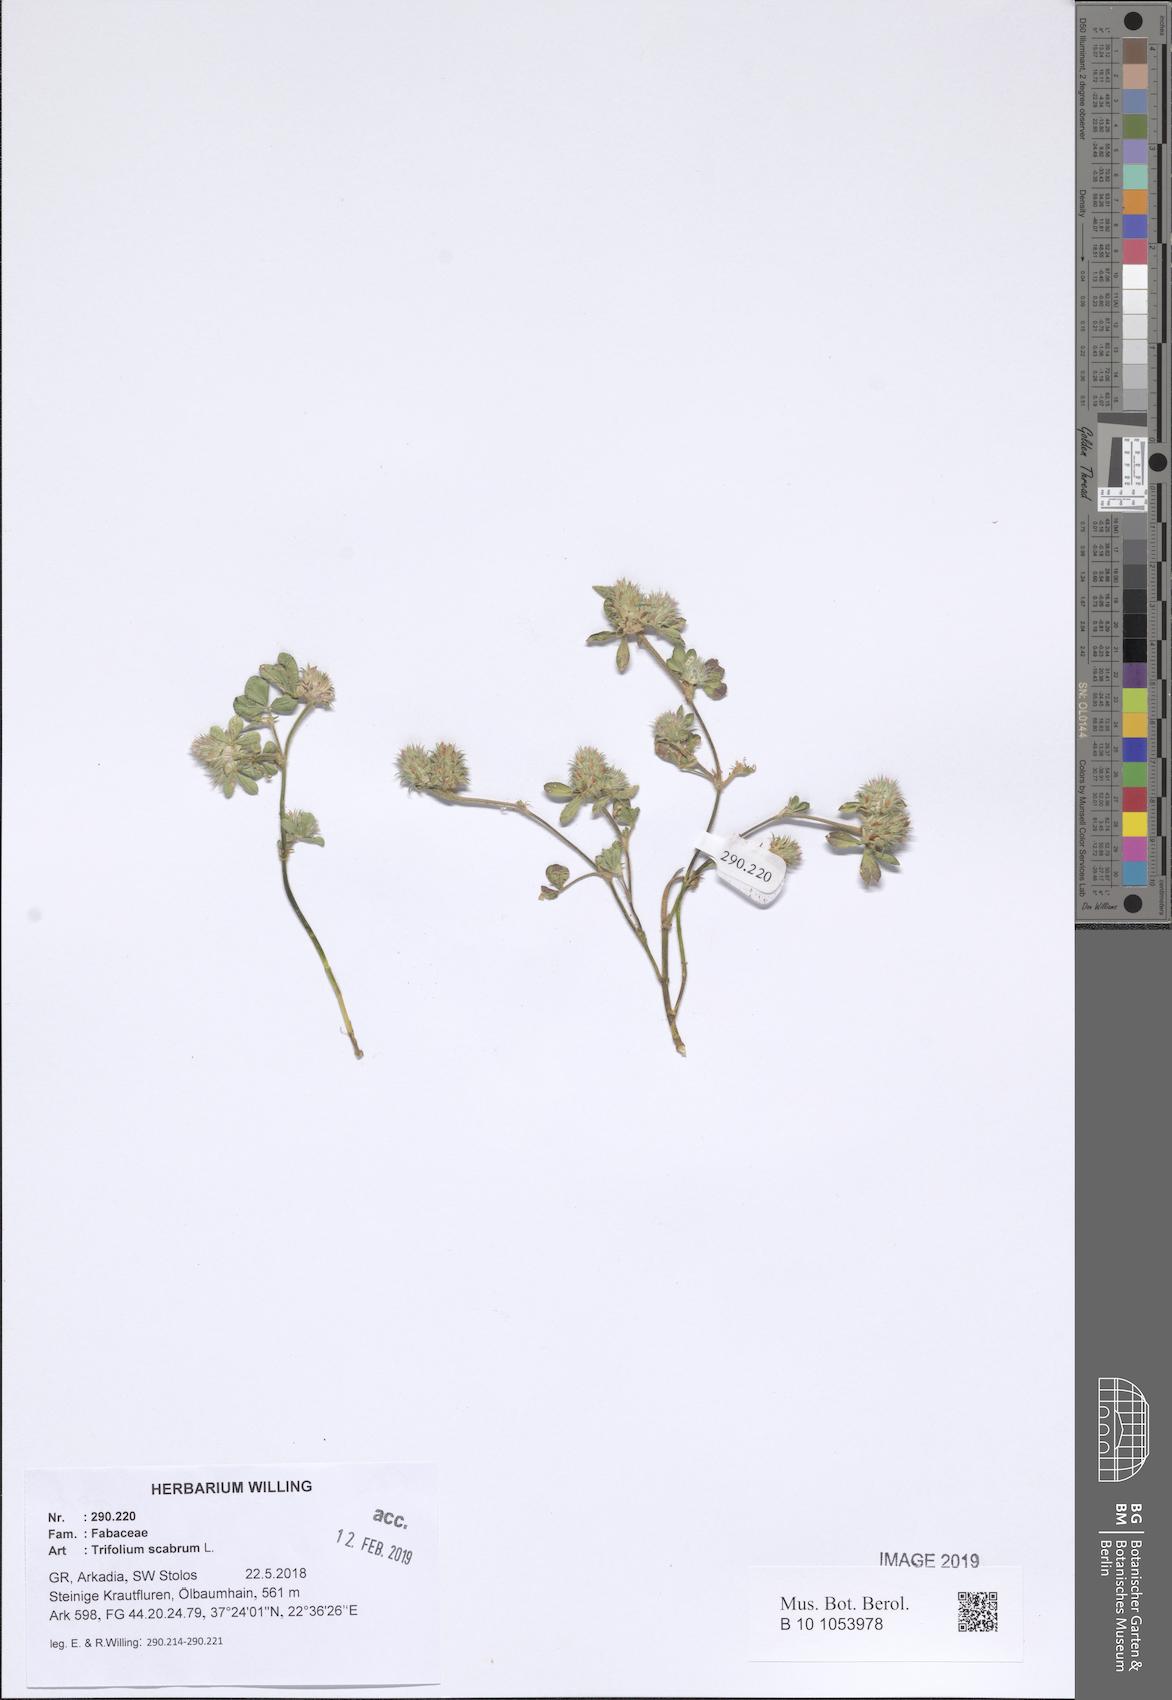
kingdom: Plantae
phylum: Tracheophyta
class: Magnoliopsida
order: Fabales
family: Fabaceae
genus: Trifolium
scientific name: Trifolium scabrum
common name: Rough clover
